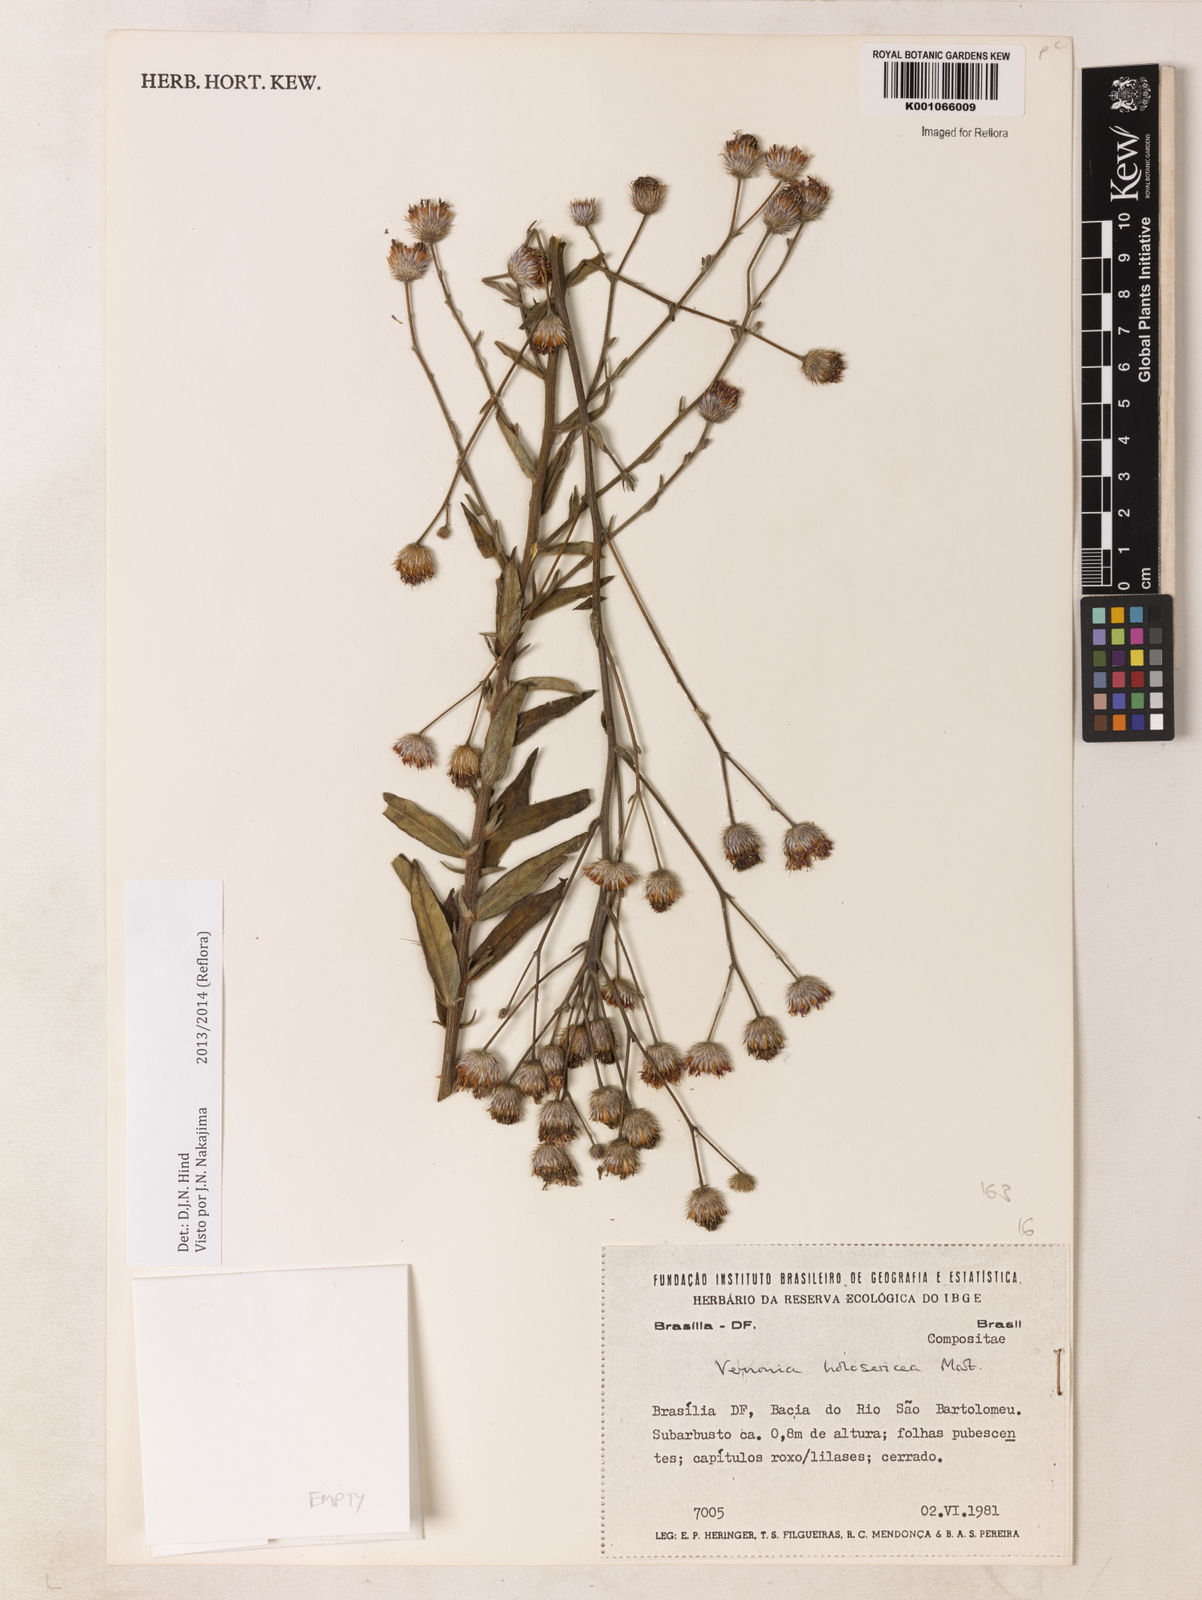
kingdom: Plantae
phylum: Tracheophyta
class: Magnoliopsida
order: Asterales
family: Asteraceae
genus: Echinocoryne
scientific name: Echinocoryne holosericea
